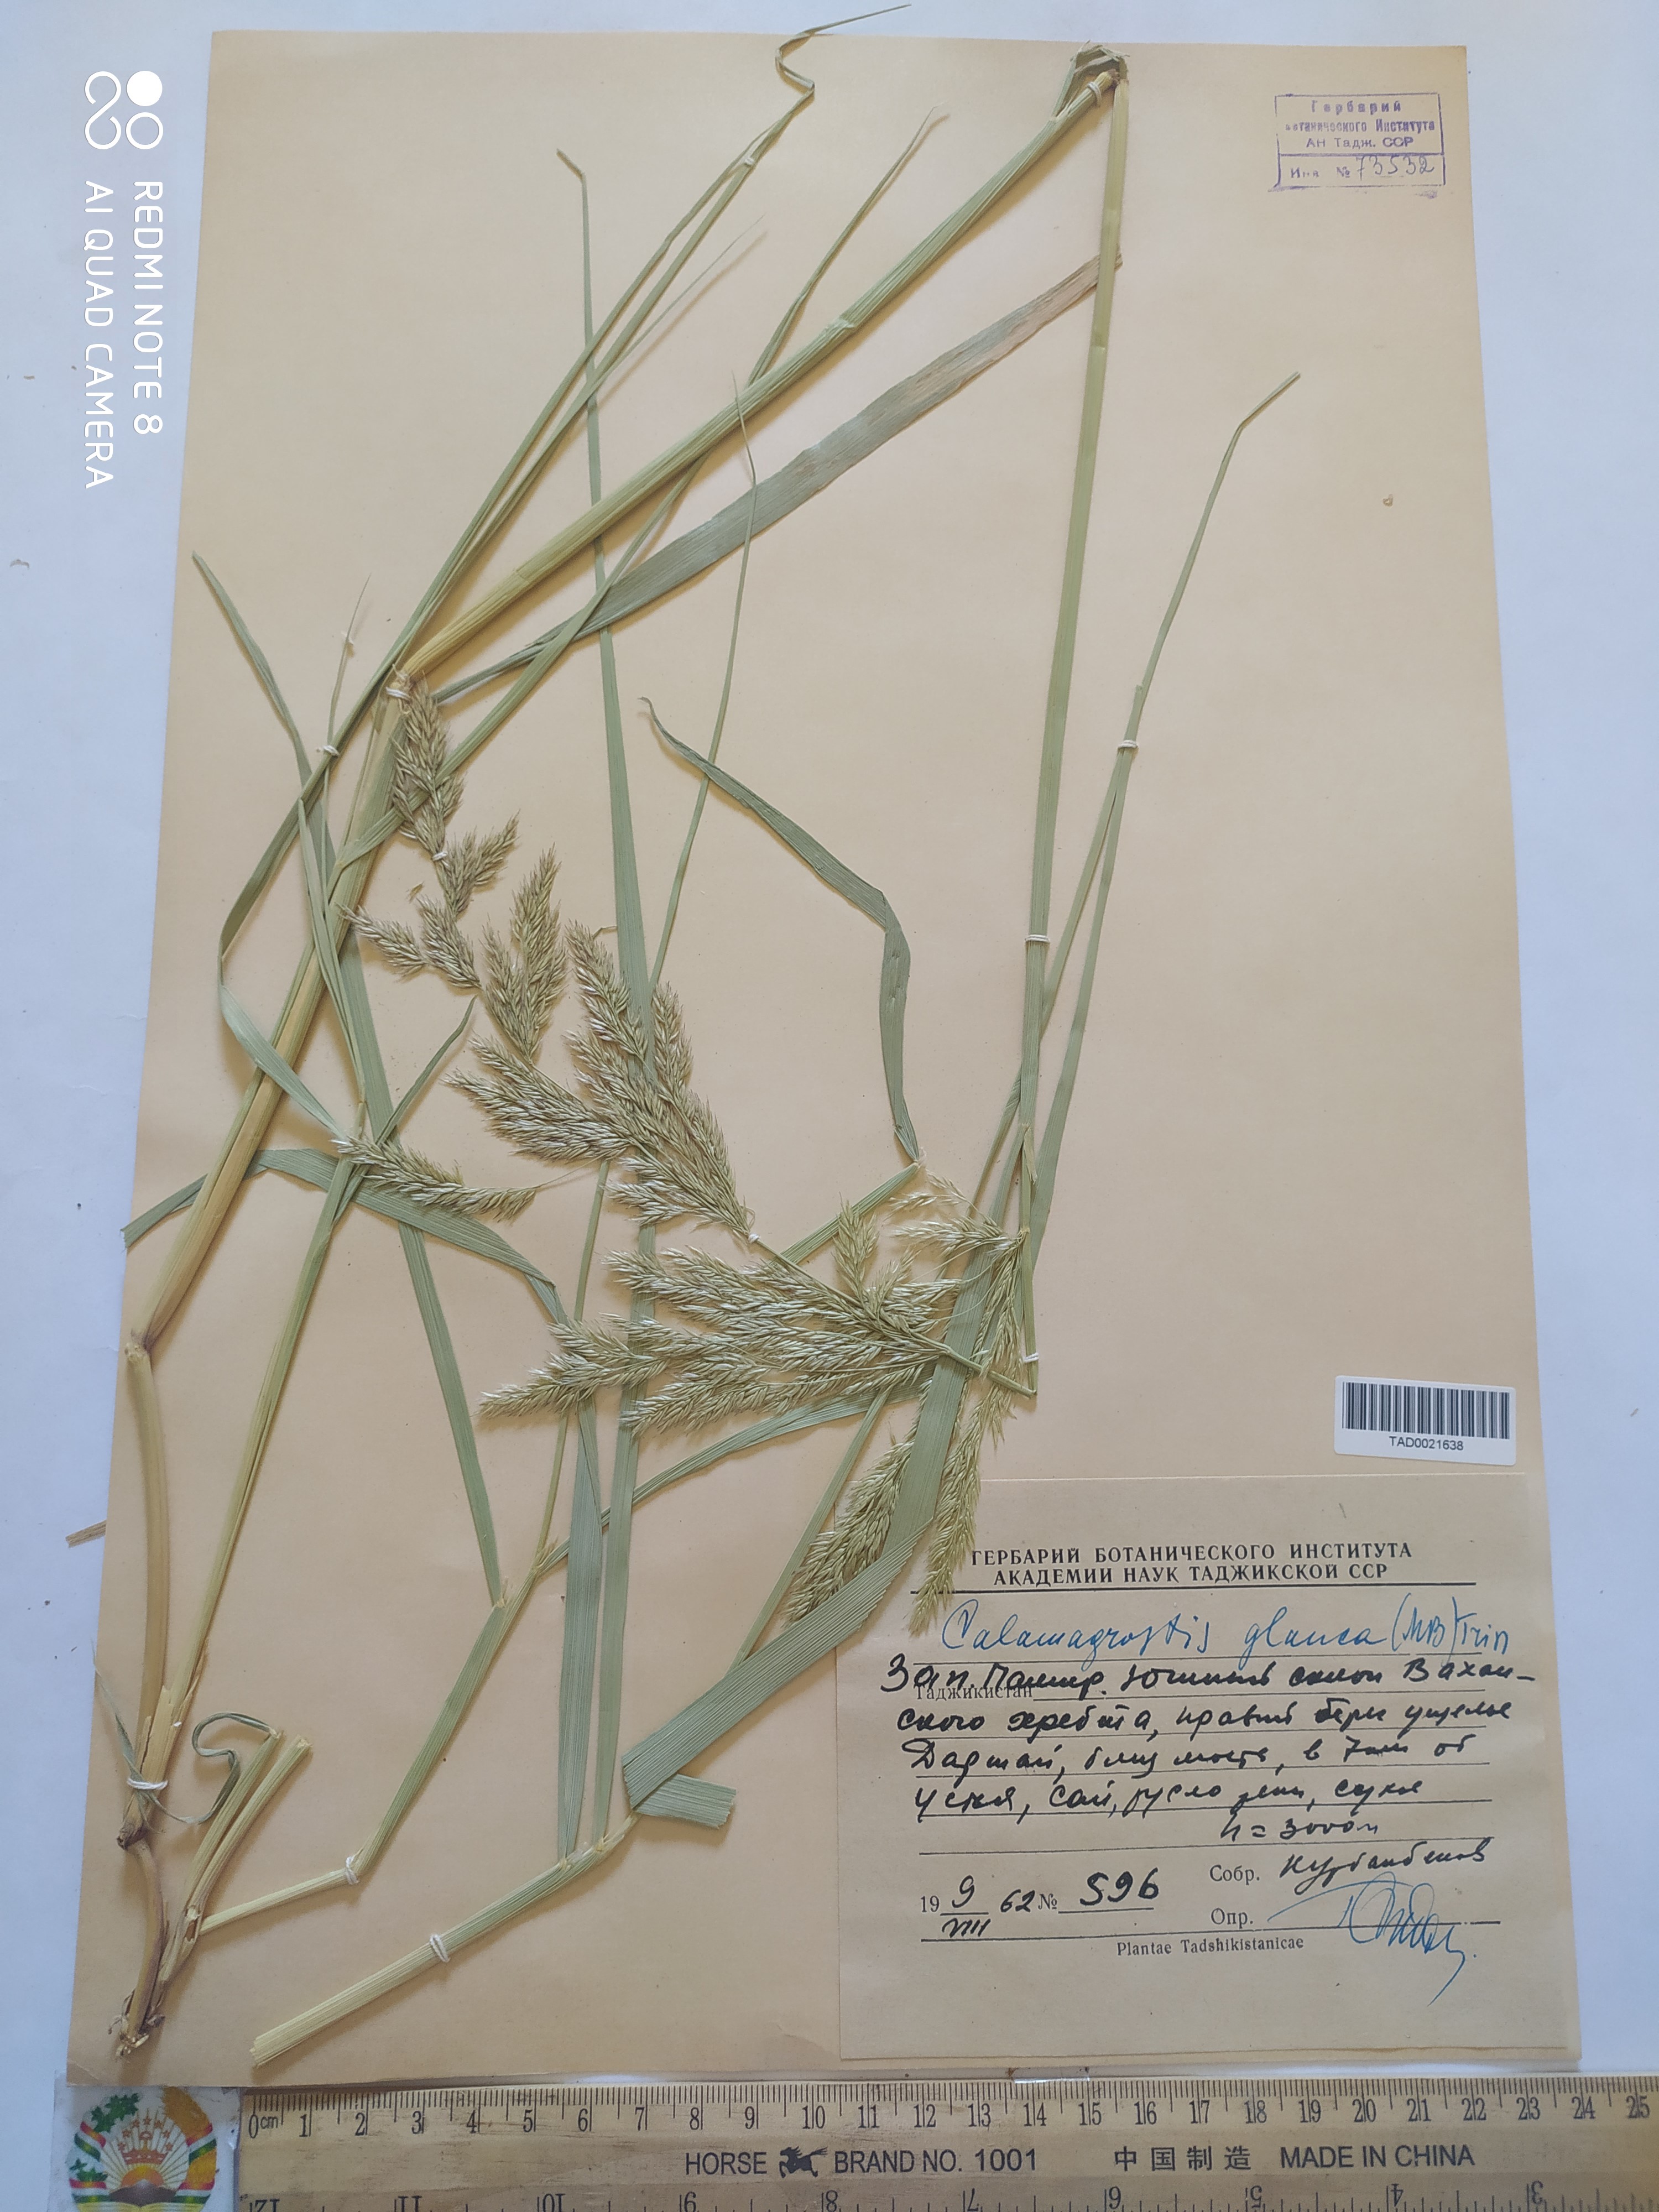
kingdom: Plantae
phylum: Tracheophyta
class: Liliopsida
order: Poales
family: Poaceae
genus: Calamagrostis
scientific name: Calamagrostis pseudophragmites
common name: Coastal small-reed
